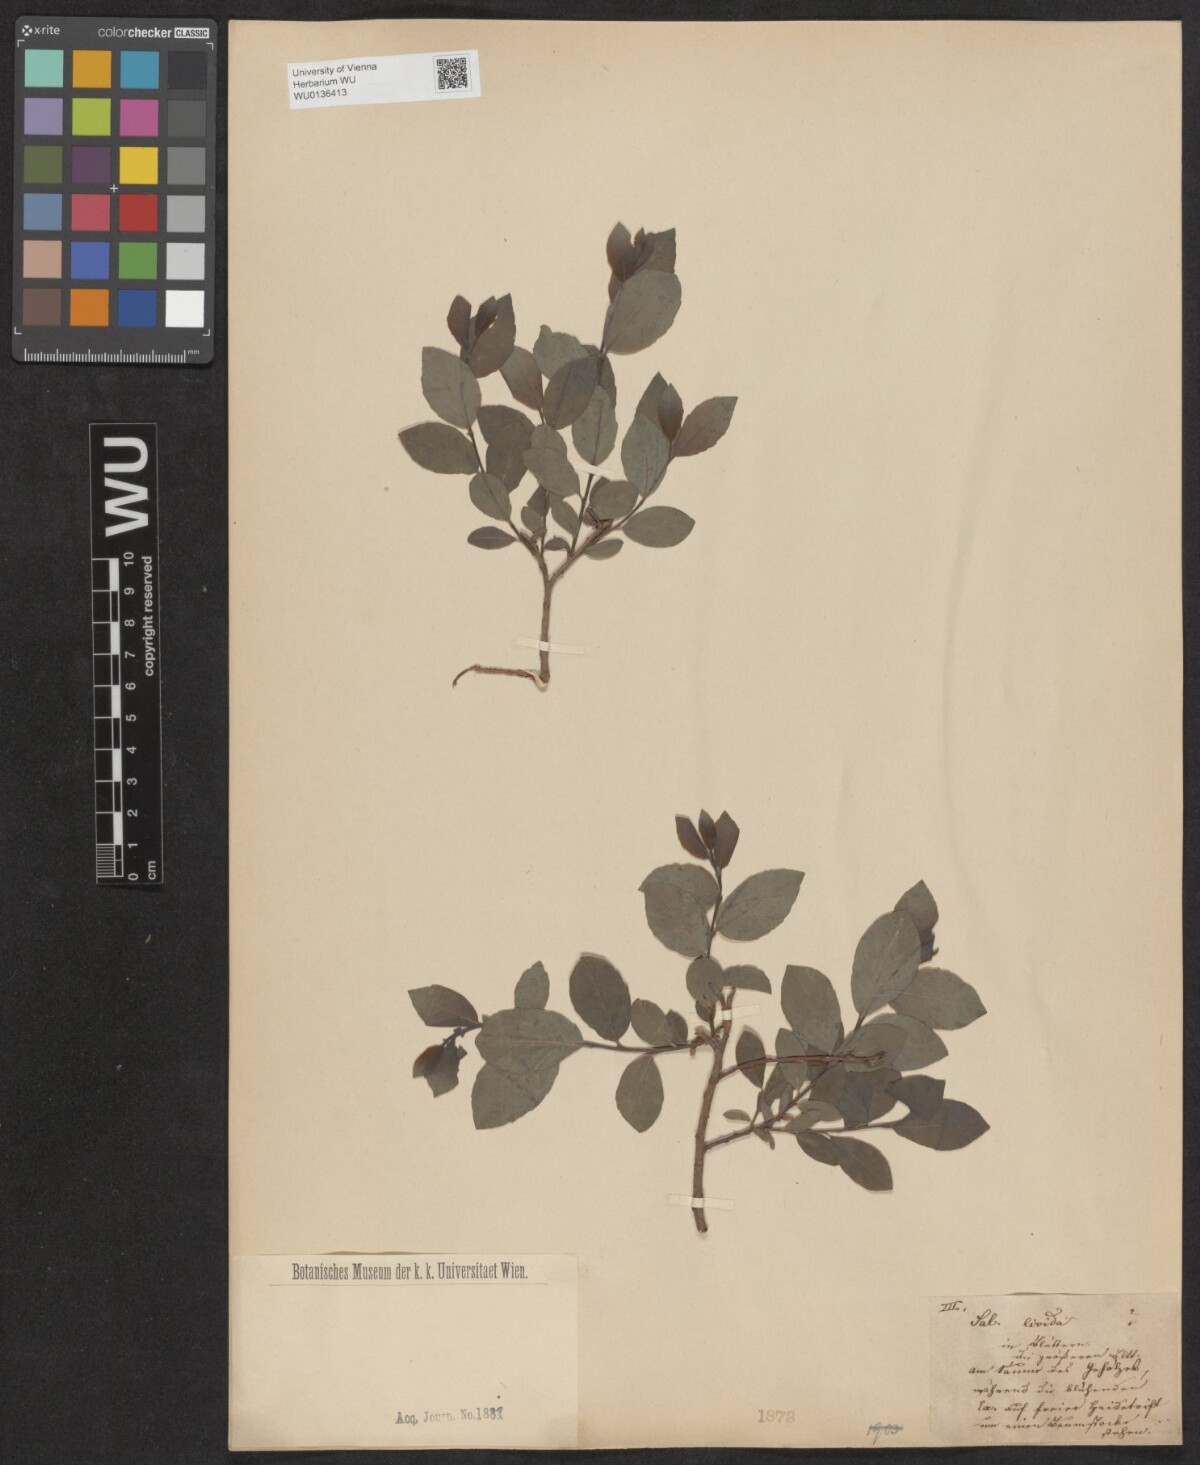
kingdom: Plantae
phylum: Tracheophyta
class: Magnoliopsida
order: Malpighiales
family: Salicaceae
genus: Salix
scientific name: Salix lanata
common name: Woolly willow
